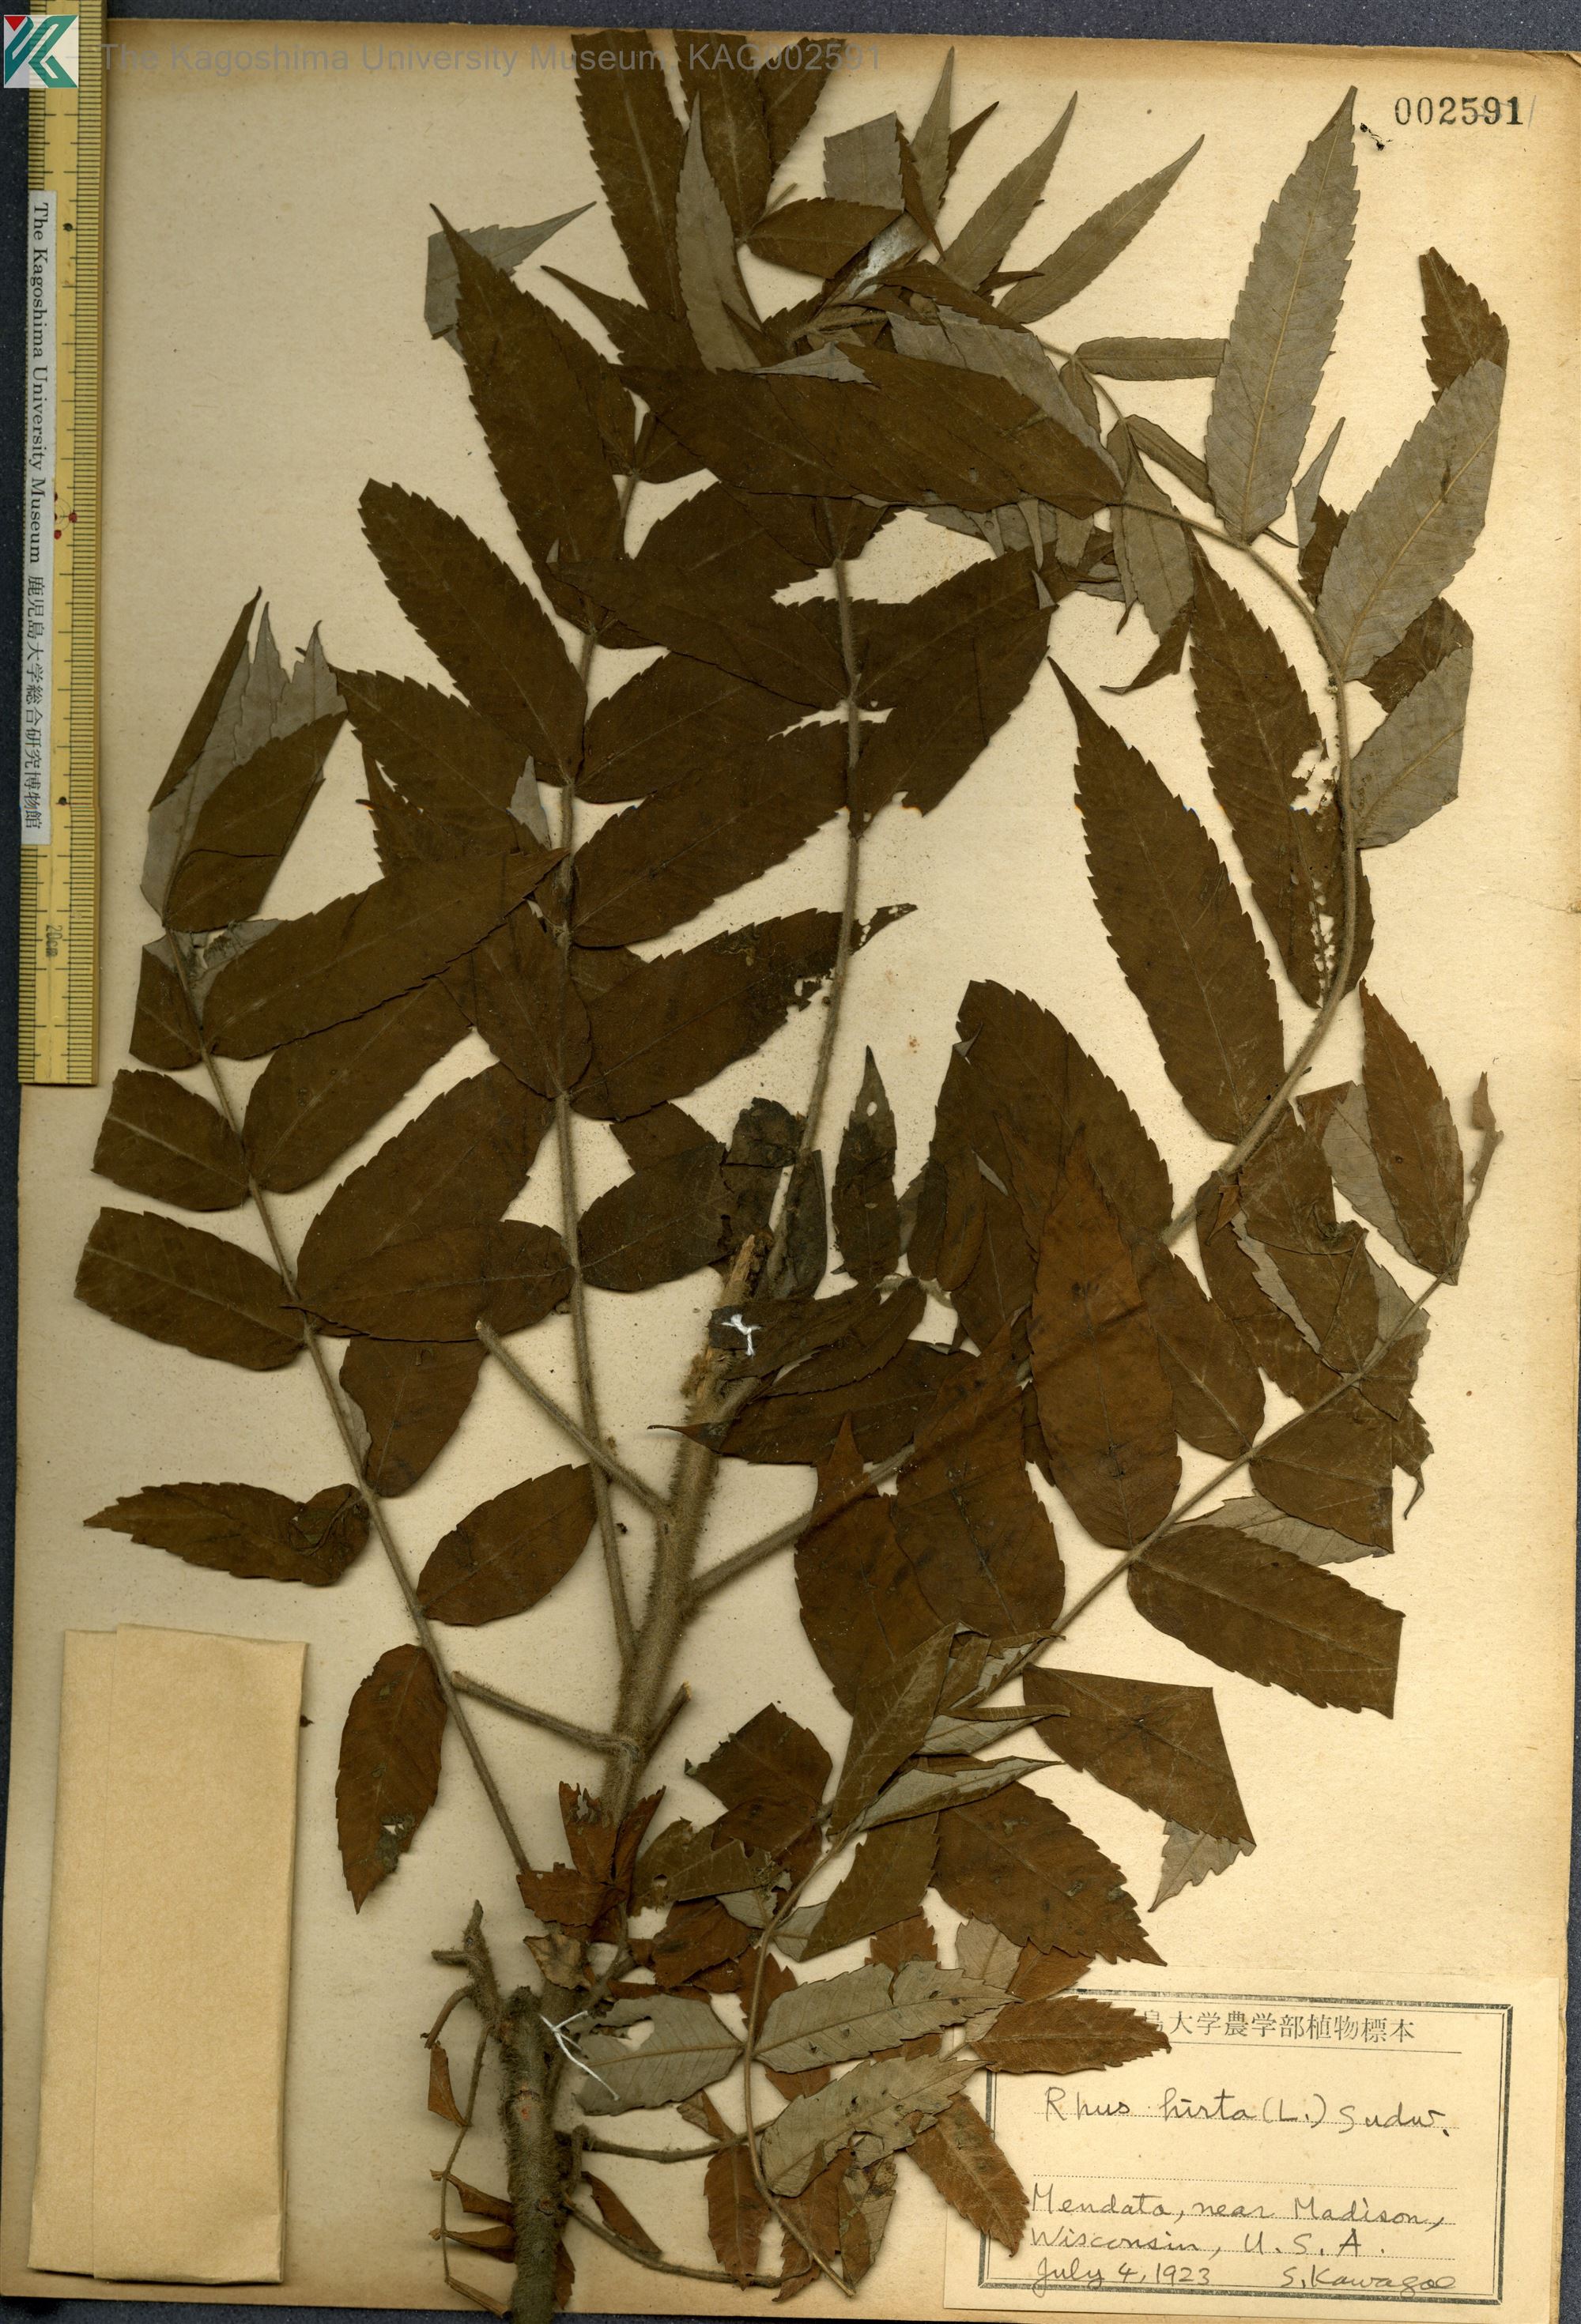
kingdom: Plantae
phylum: Tracheophyta
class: Magnoliopsida
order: Sapindales
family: Anacardiaceae
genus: Rhus
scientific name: Rhus typhina
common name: Staghorn sumac
